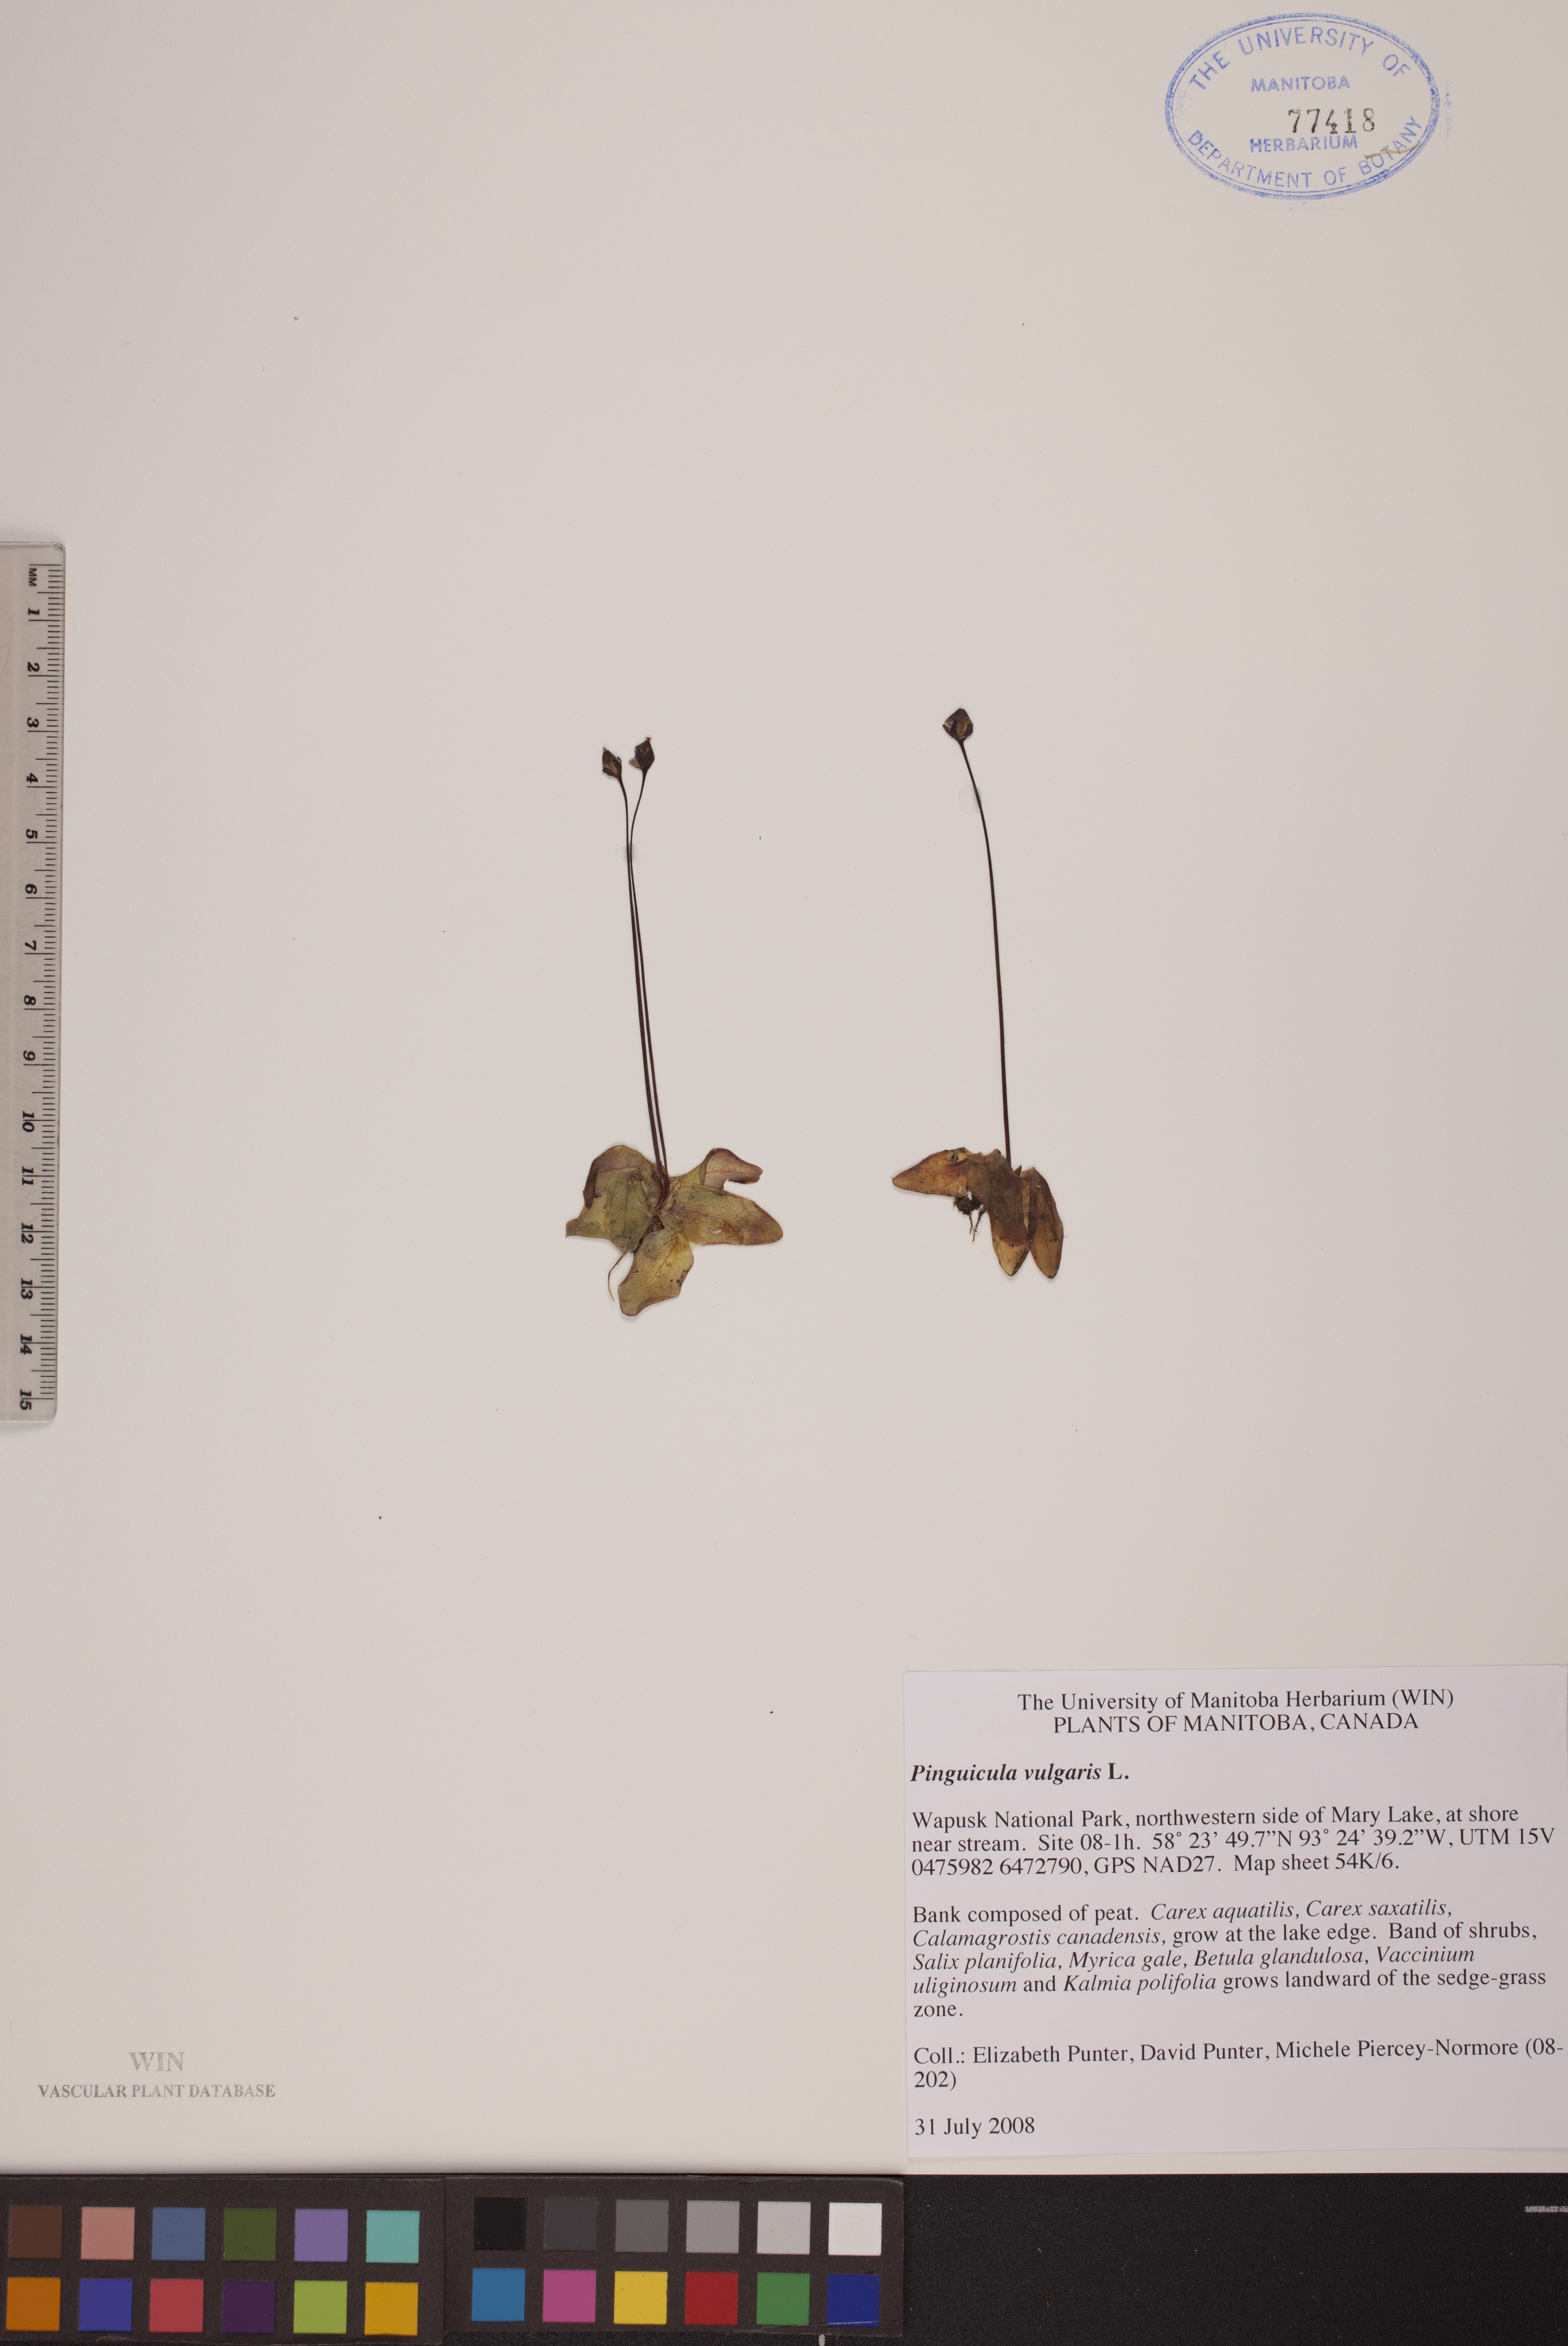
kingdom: Plantae
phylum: Tracheophyta
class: Magnoliopsida
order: Lamiales
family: Lentibulariaceae
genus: Pinguicula
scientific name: Pinguicula vulgaris
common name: Common butterwort
